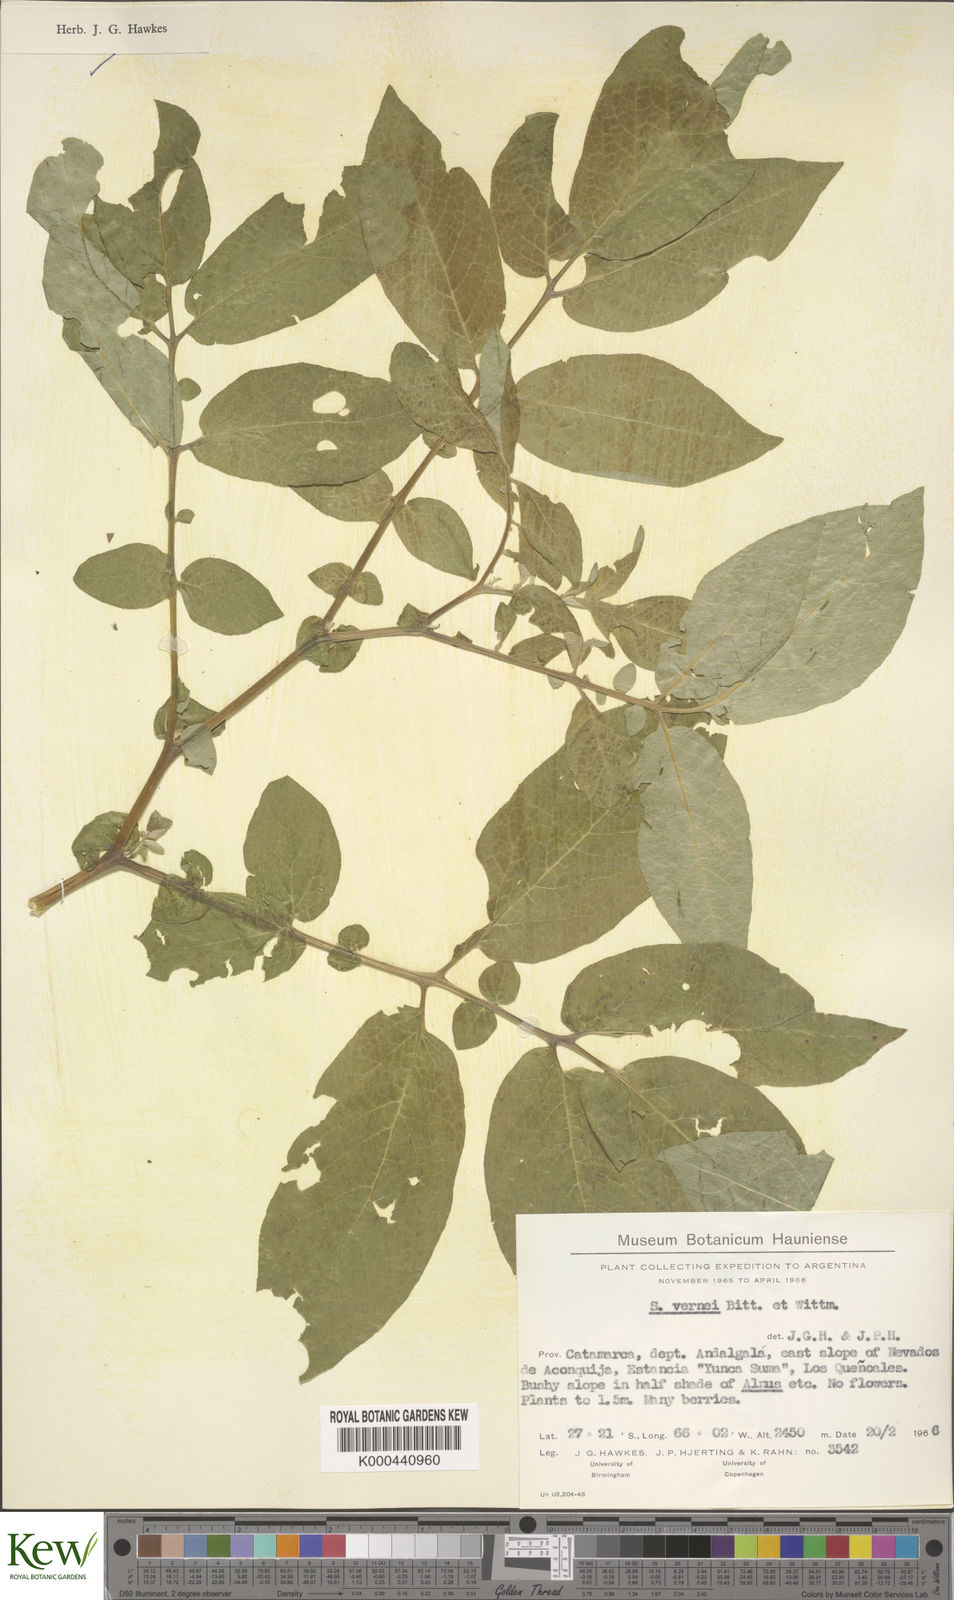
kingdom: Plantae
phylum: Tracheophyta
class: Magnoliopsida
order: Solanales
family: Solanaceae
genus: Solanum
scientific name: Solanum vernei
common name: Purple potato
